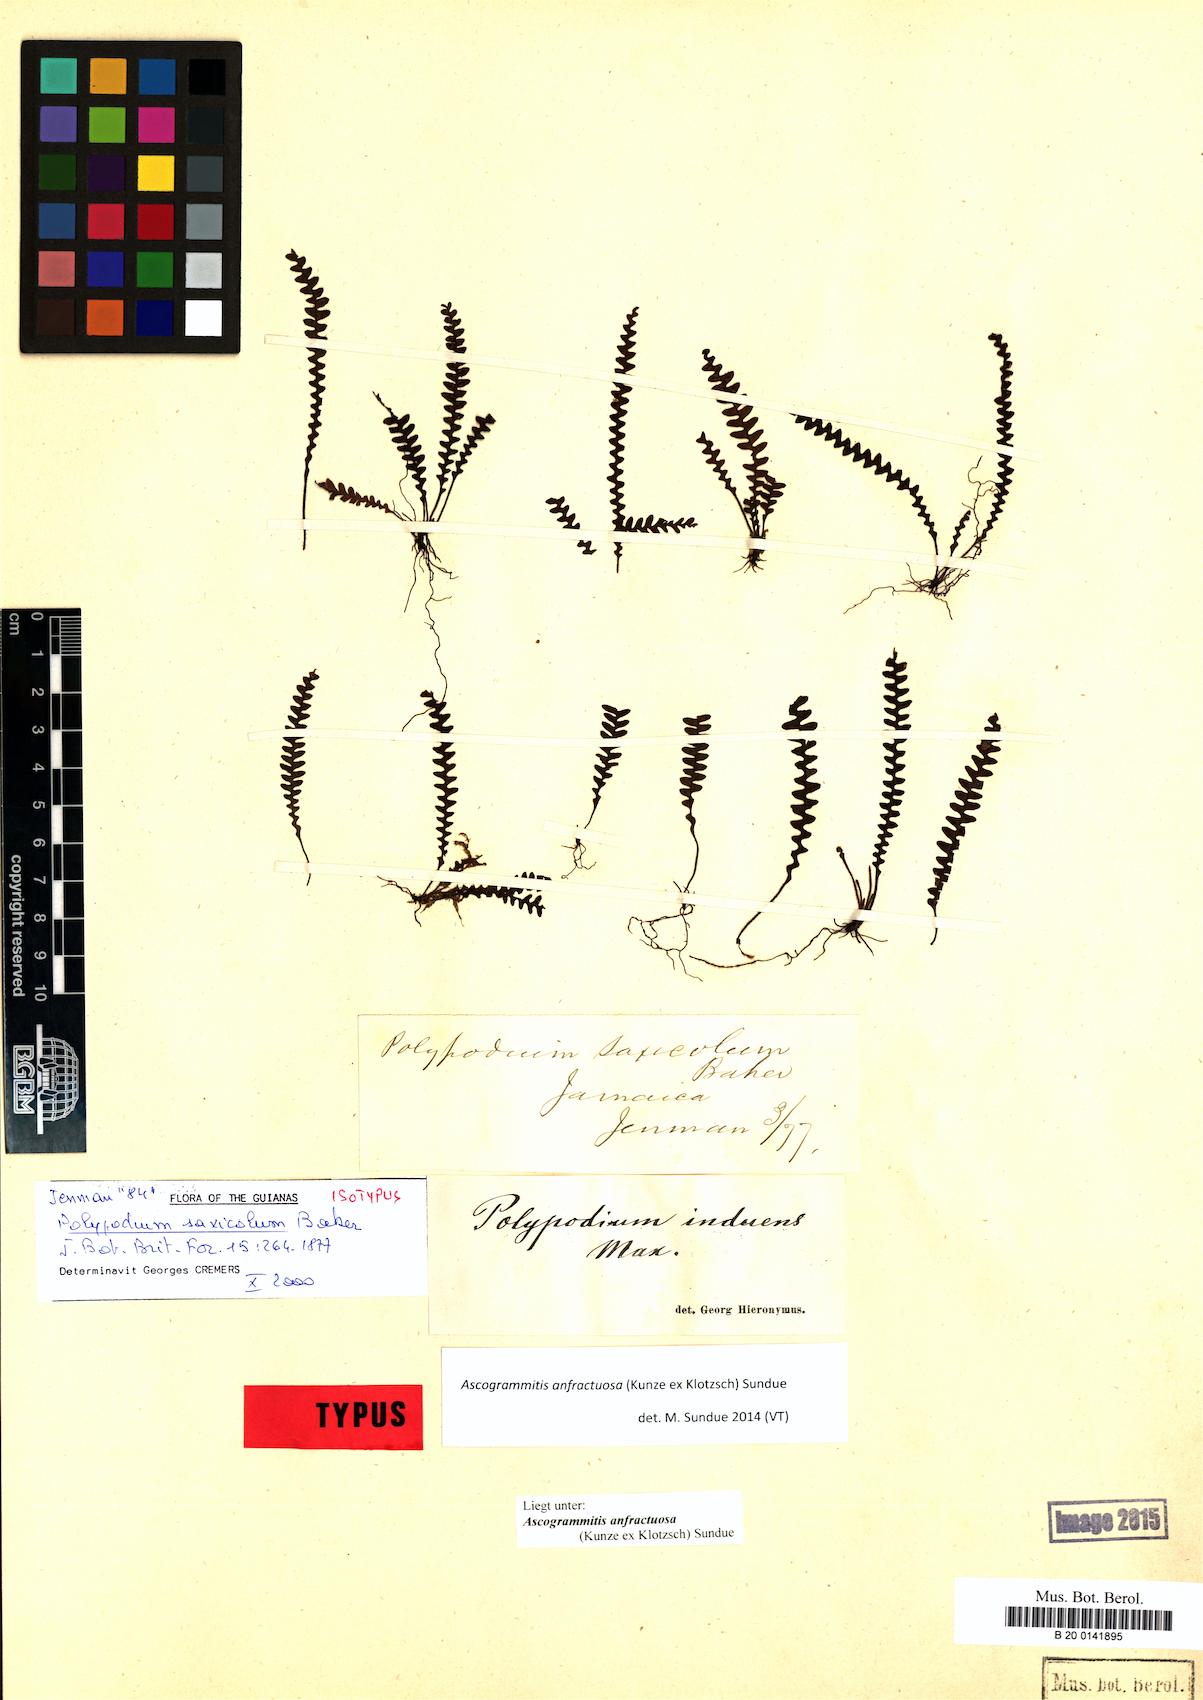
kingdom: Plantae
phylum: Tracheophyta
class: Polypodiopsida
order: Polypodiales
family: Polypodiaceae
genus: Ascogrammitis
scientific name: Ascogrammitis anfractuosa
